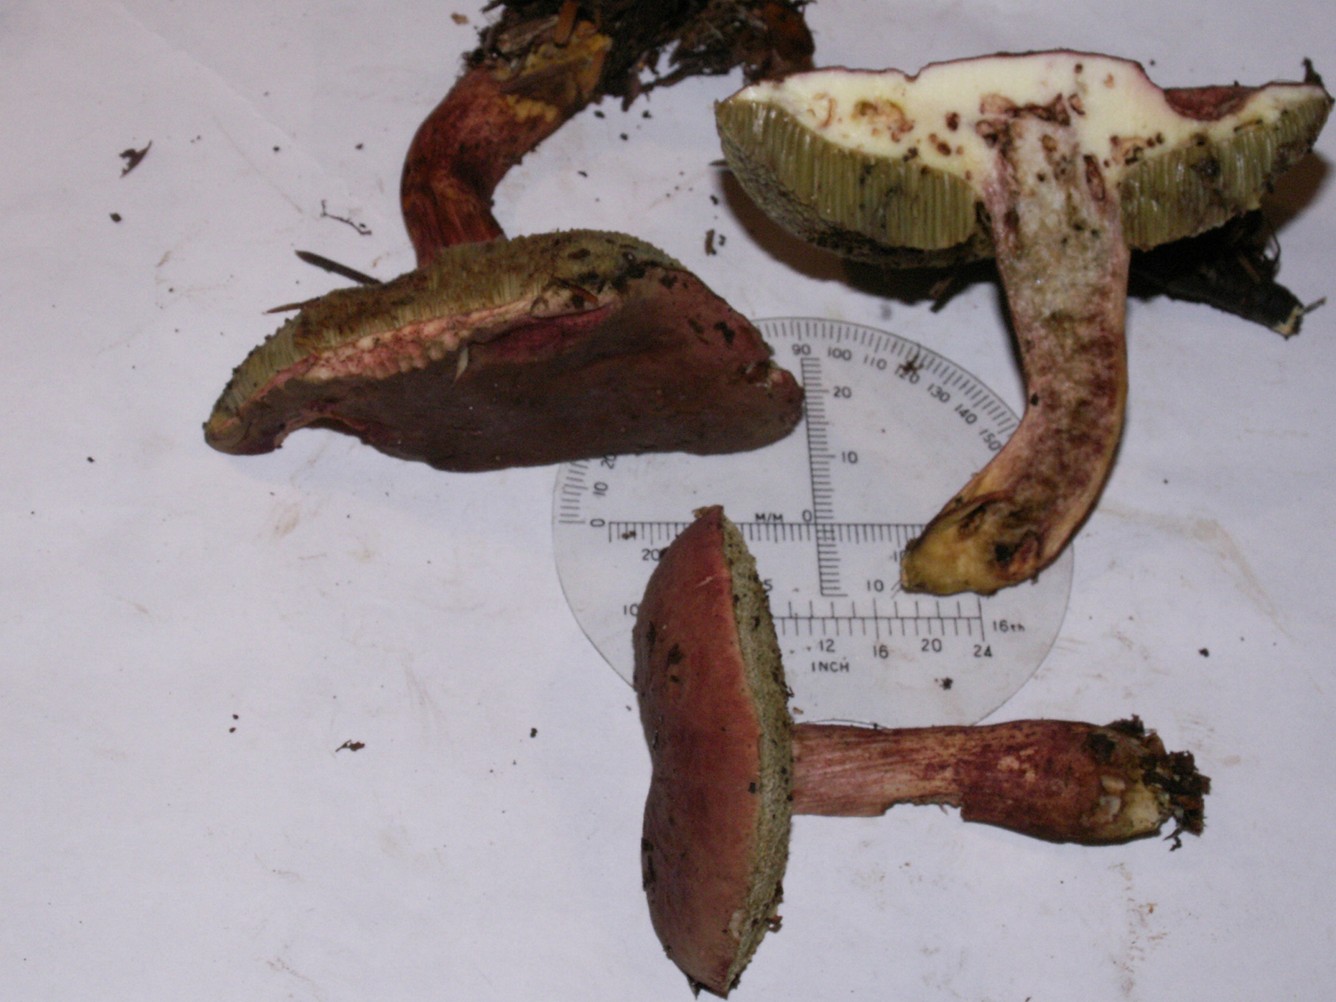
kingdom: Fungi
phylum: Basidiomycota
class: Agaricomycetes
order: Boletales
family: Boletaceae
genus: Xerocomellus
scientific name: Xerocomellus pruinatus
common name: dugget rørhat
